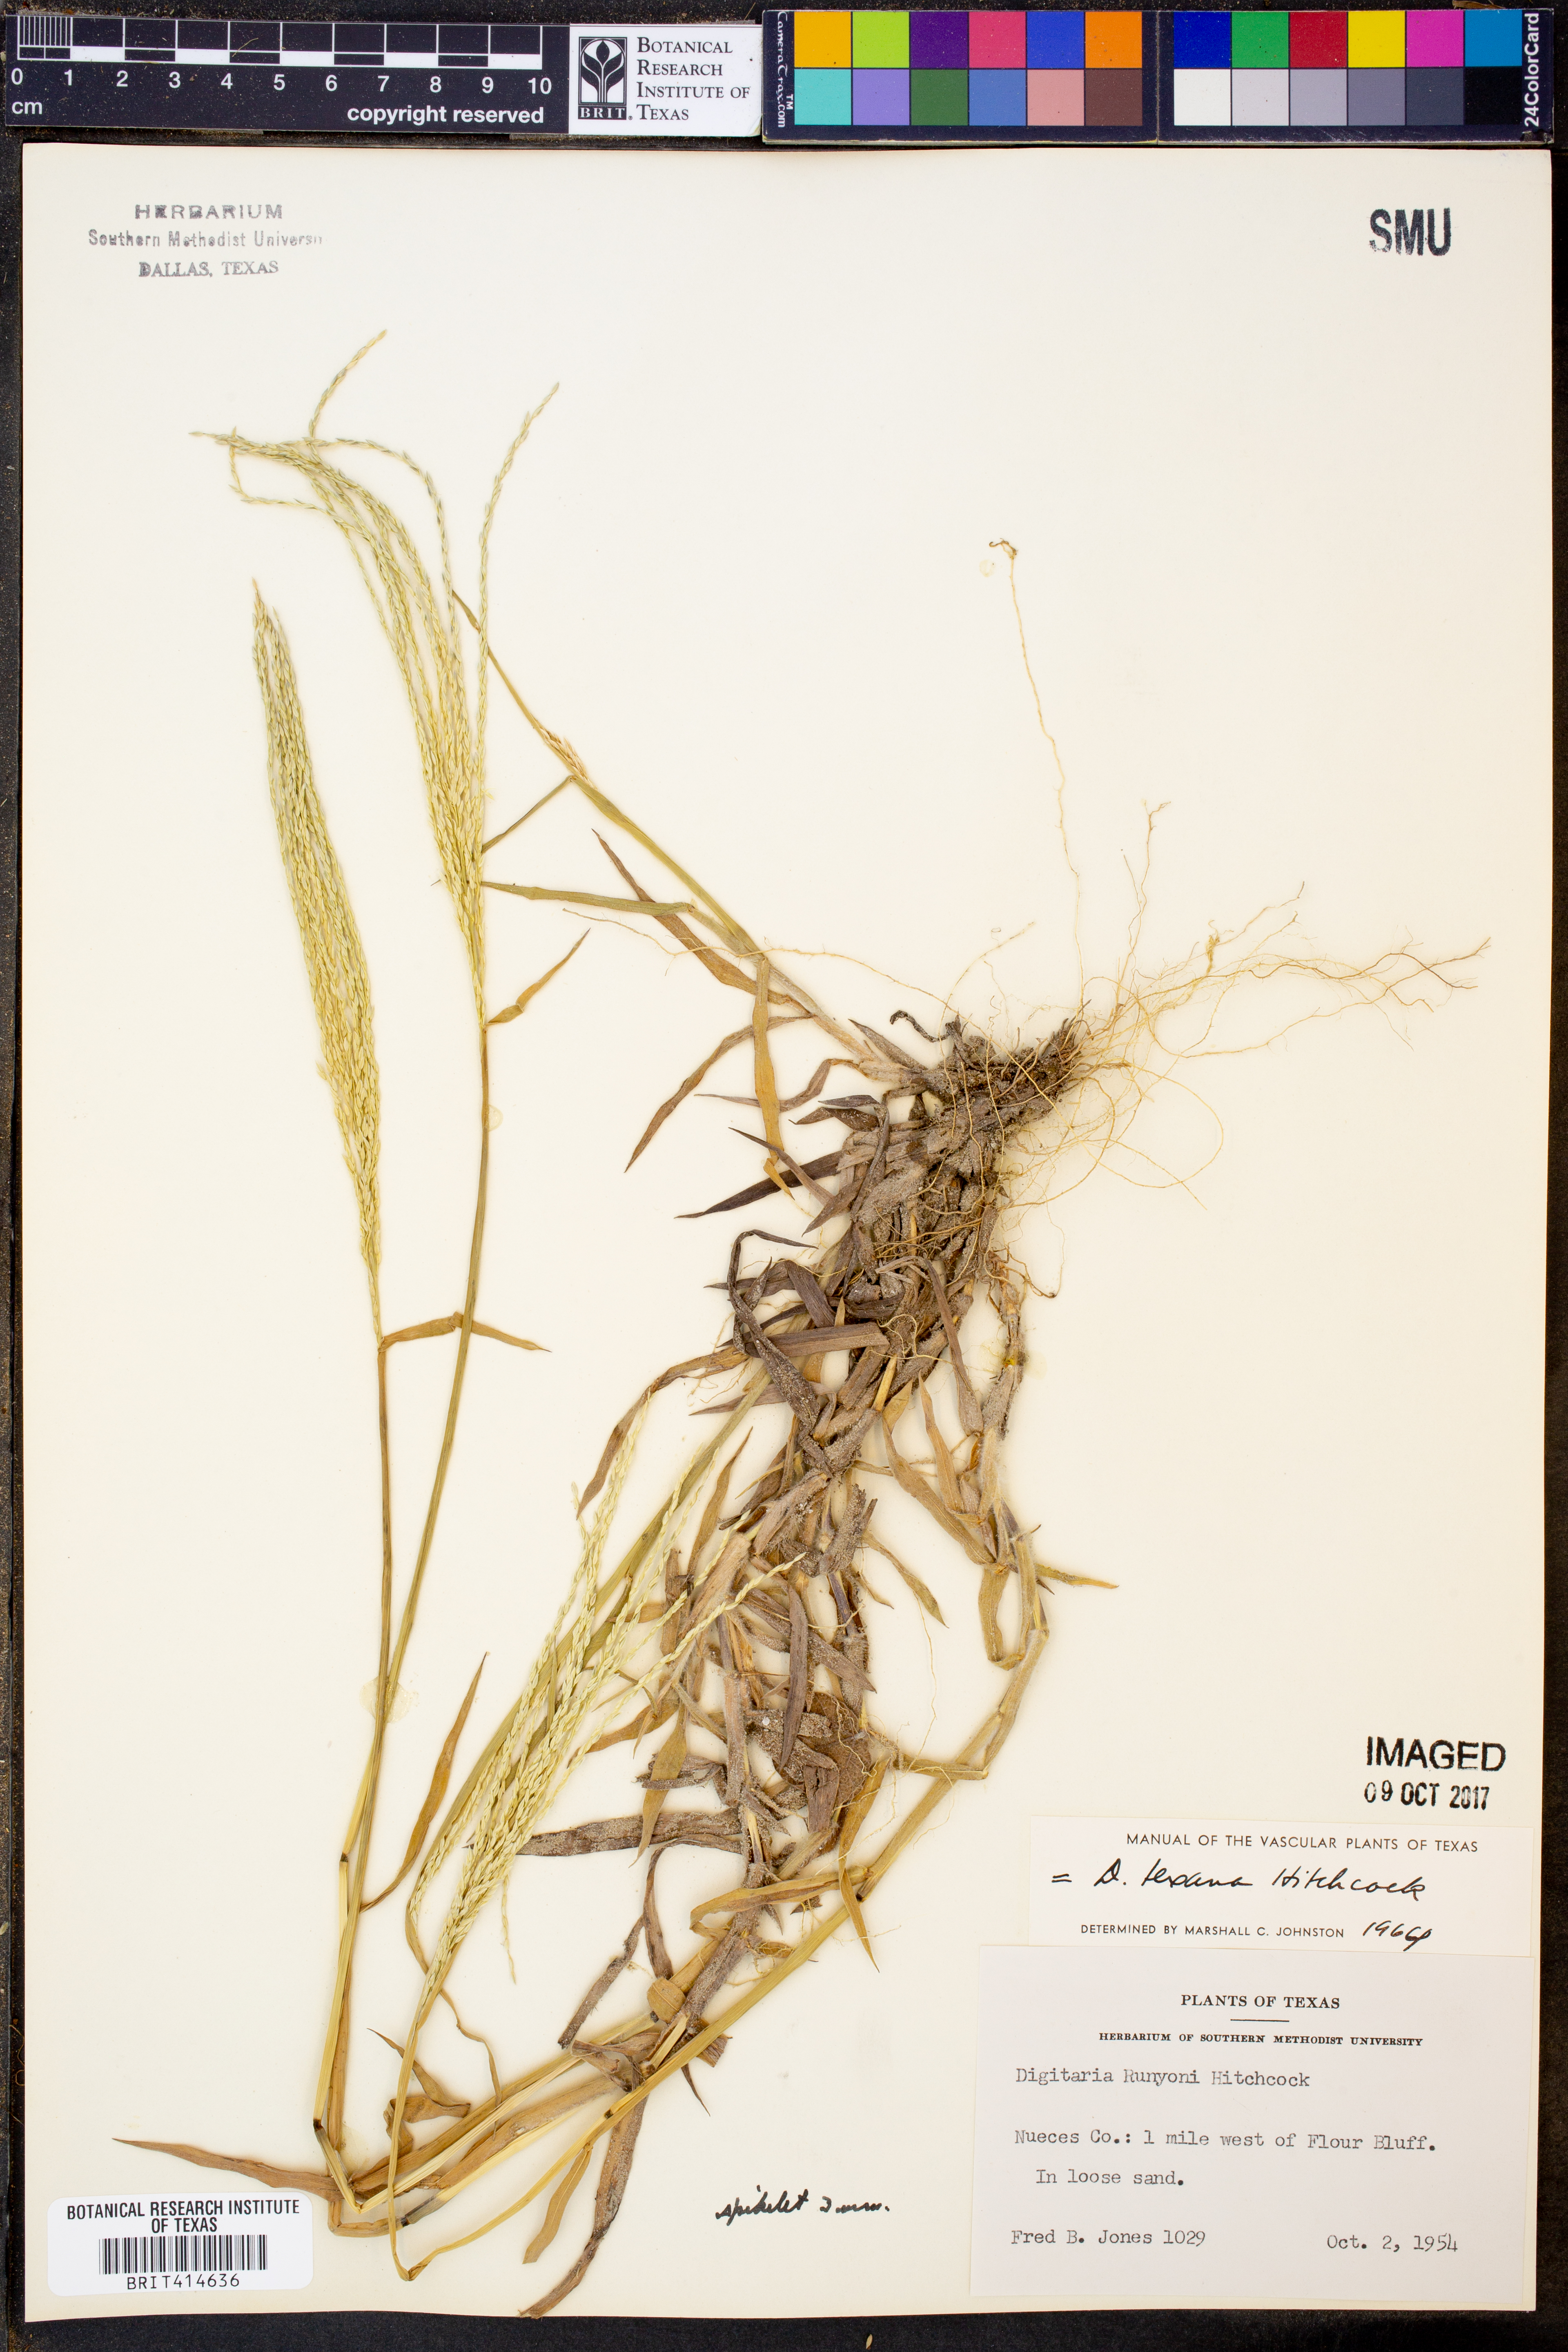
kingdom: Plantae
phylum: Tracheophyta
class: Liliopsida
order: Poales
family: Poaceae
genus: Digitaria
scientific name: Digitaria texana
